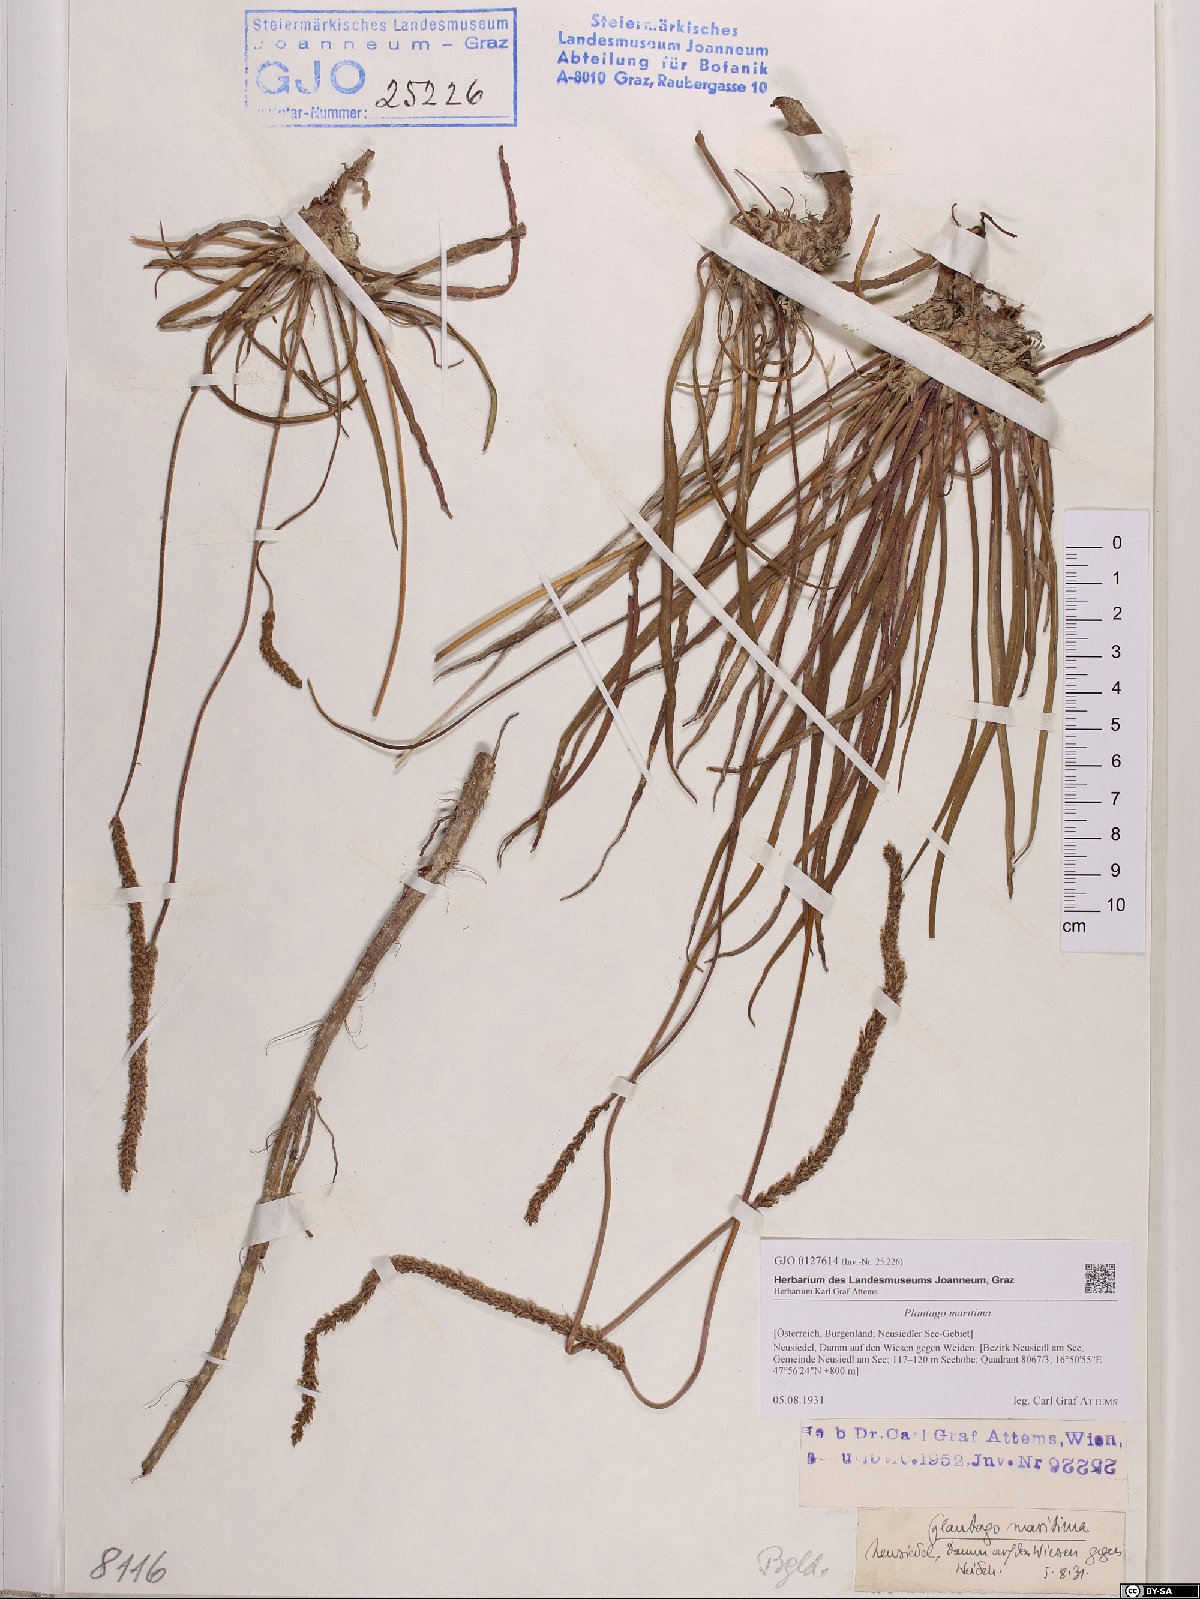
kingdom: Plantae
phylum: Tracheophyta
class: Magnoliopsida
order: Lamiales
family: Plantaginaceae
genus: Plantago
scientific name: Plantago maritima
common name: Sea plantain
